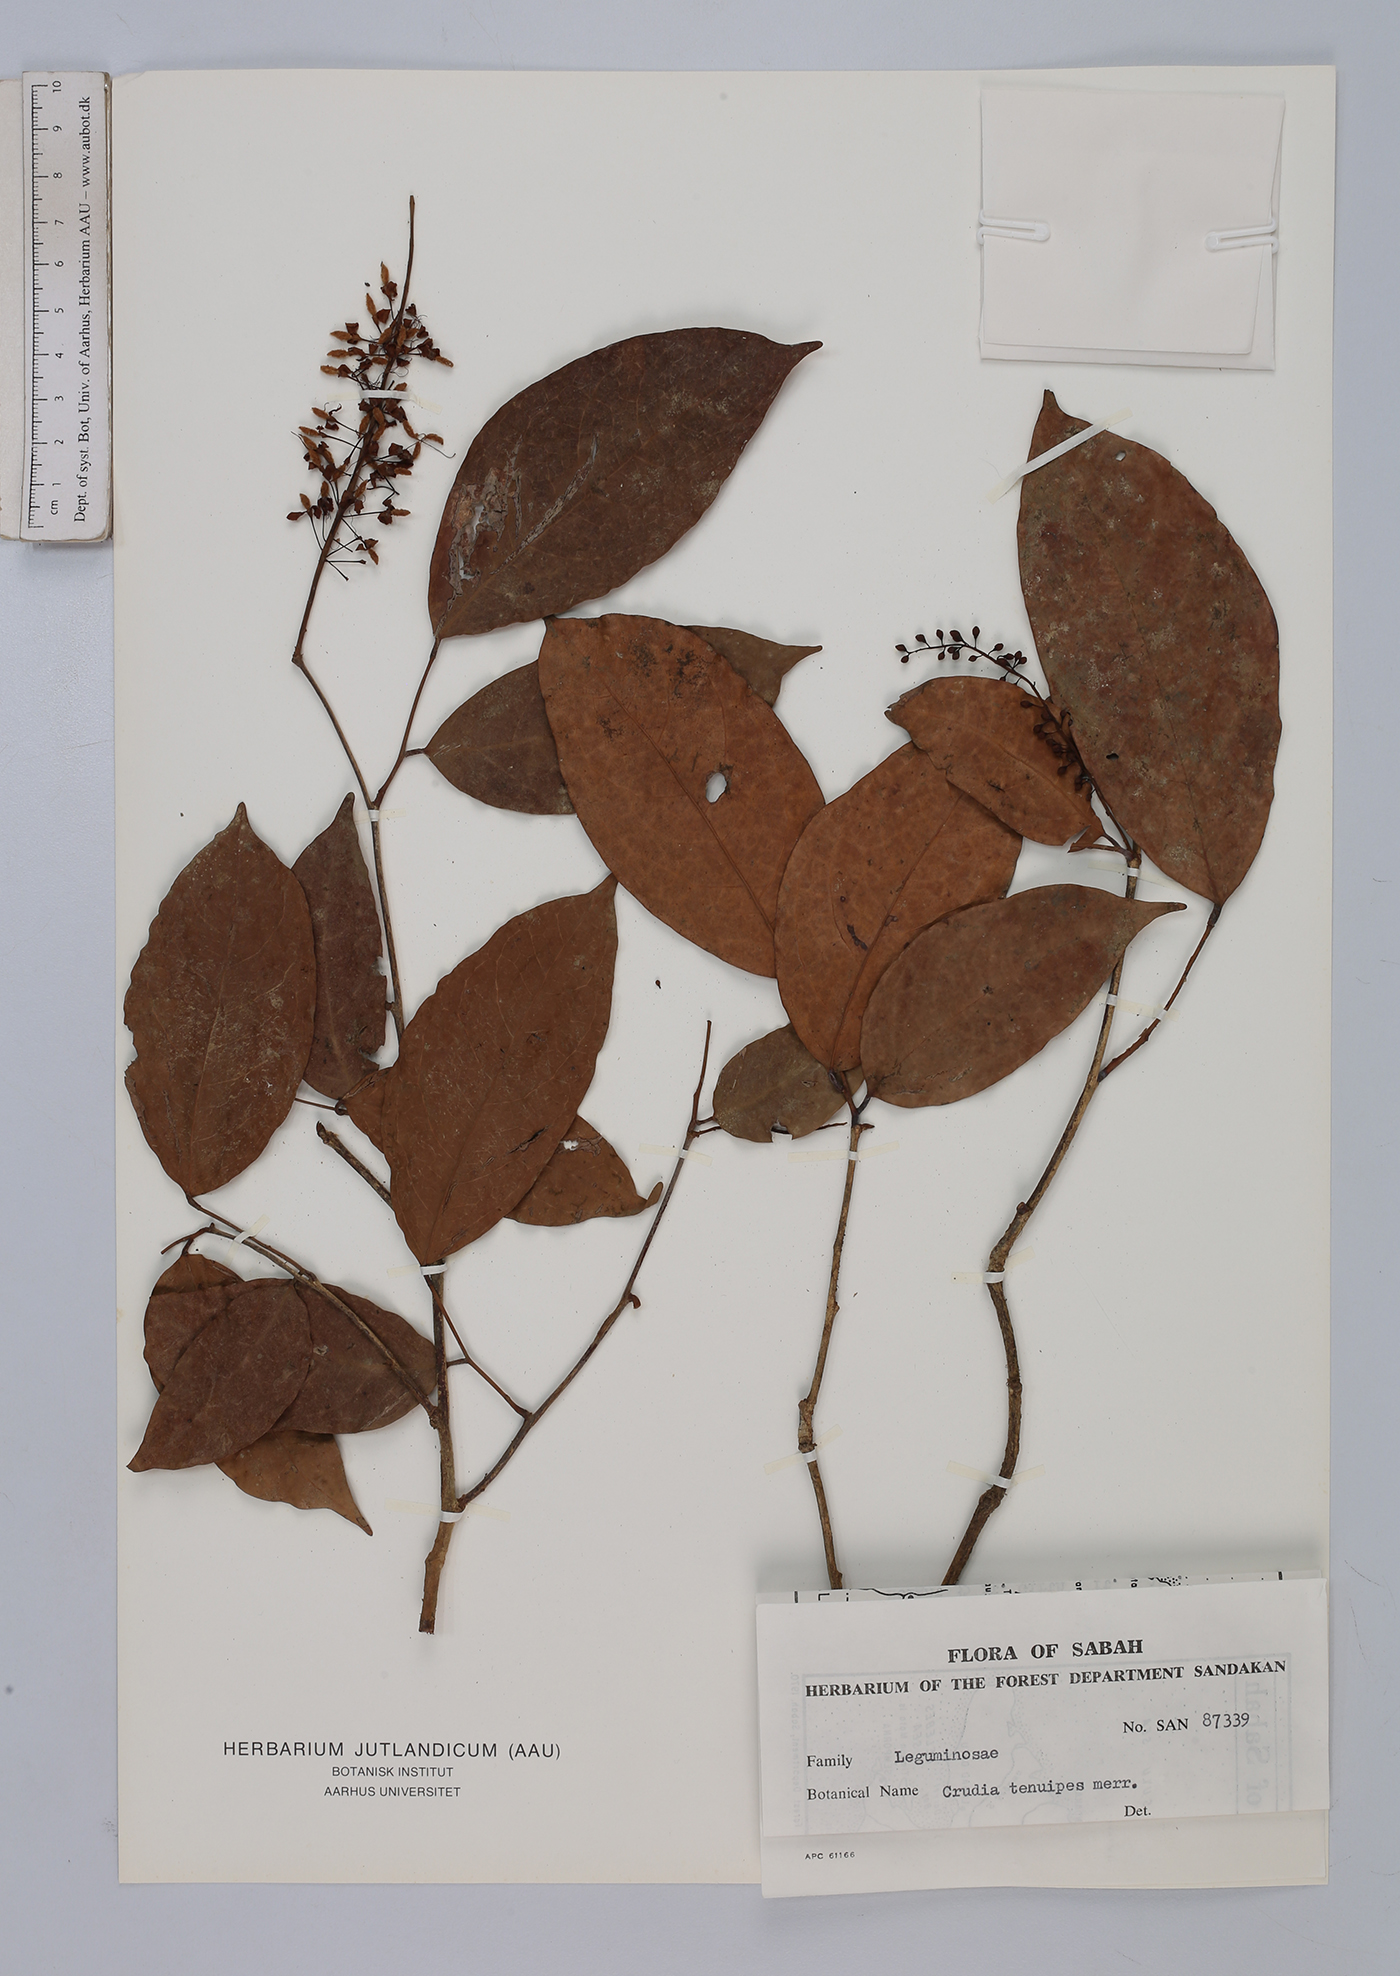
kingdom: Plantae
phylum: Tracheophyta
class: Magnoliopsida
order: Fabales
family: Fabaceae
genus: Crudia
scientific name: Crudia tenuipes
